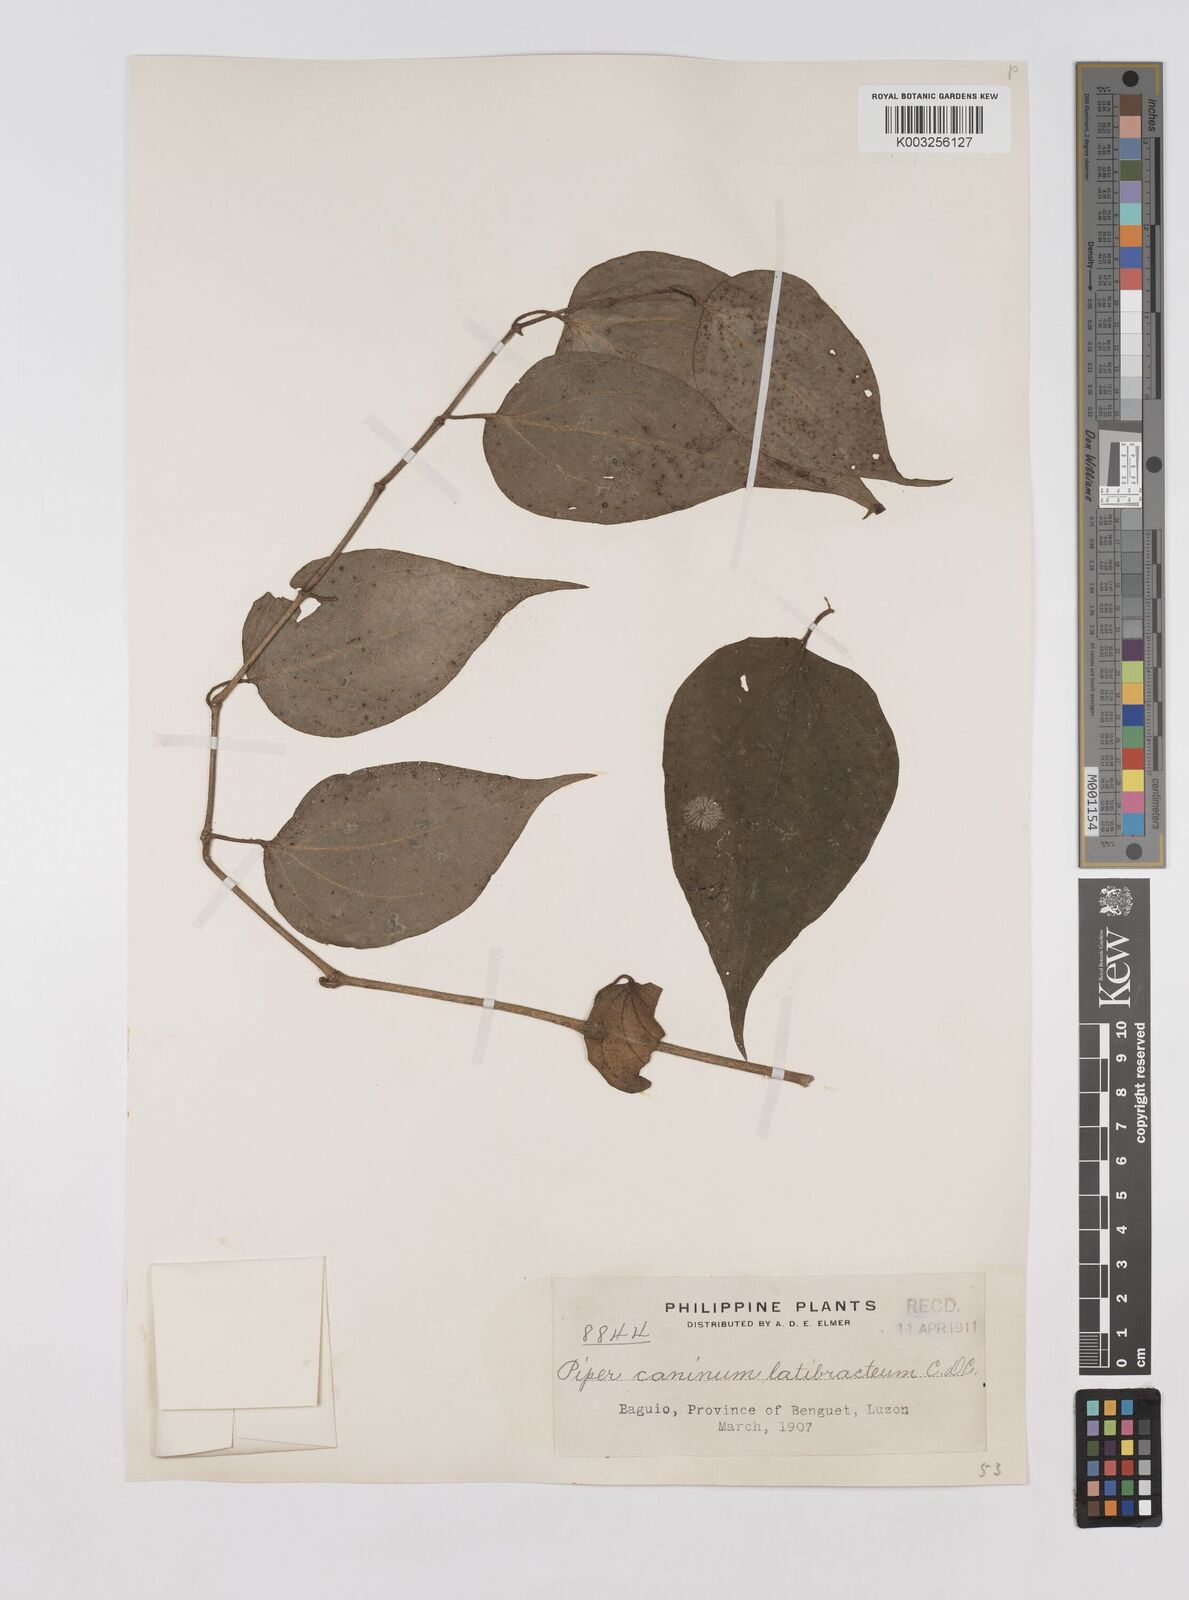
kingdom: Plantae
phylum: Tracheophyta
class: Magnoliopsida
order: Piperales
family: Piperaceae
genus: Piper
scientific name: Piper lanatum
